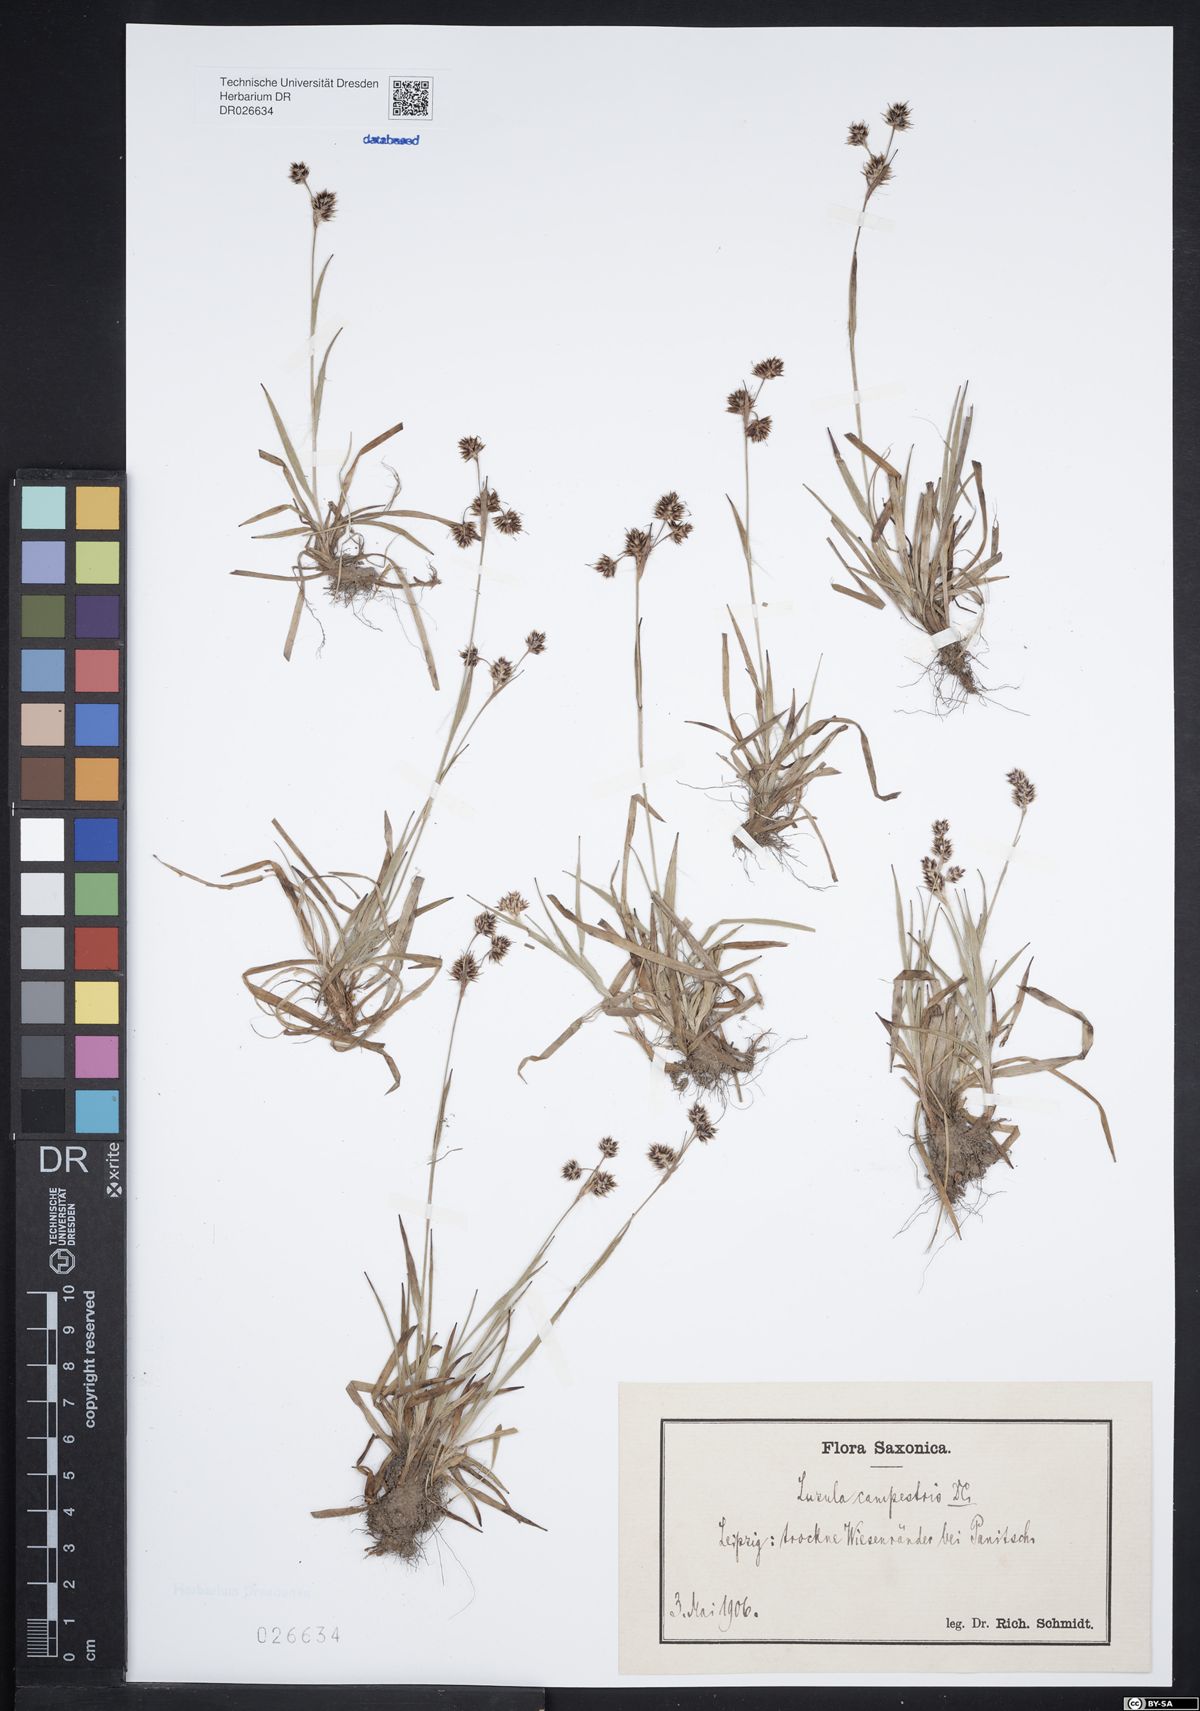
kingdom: Plantae
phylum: Tracheophyta
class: Liliopsida
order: Poales
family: Juncaceae
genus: Luzula
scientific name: Luzula campestris
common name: Field wood-rush
